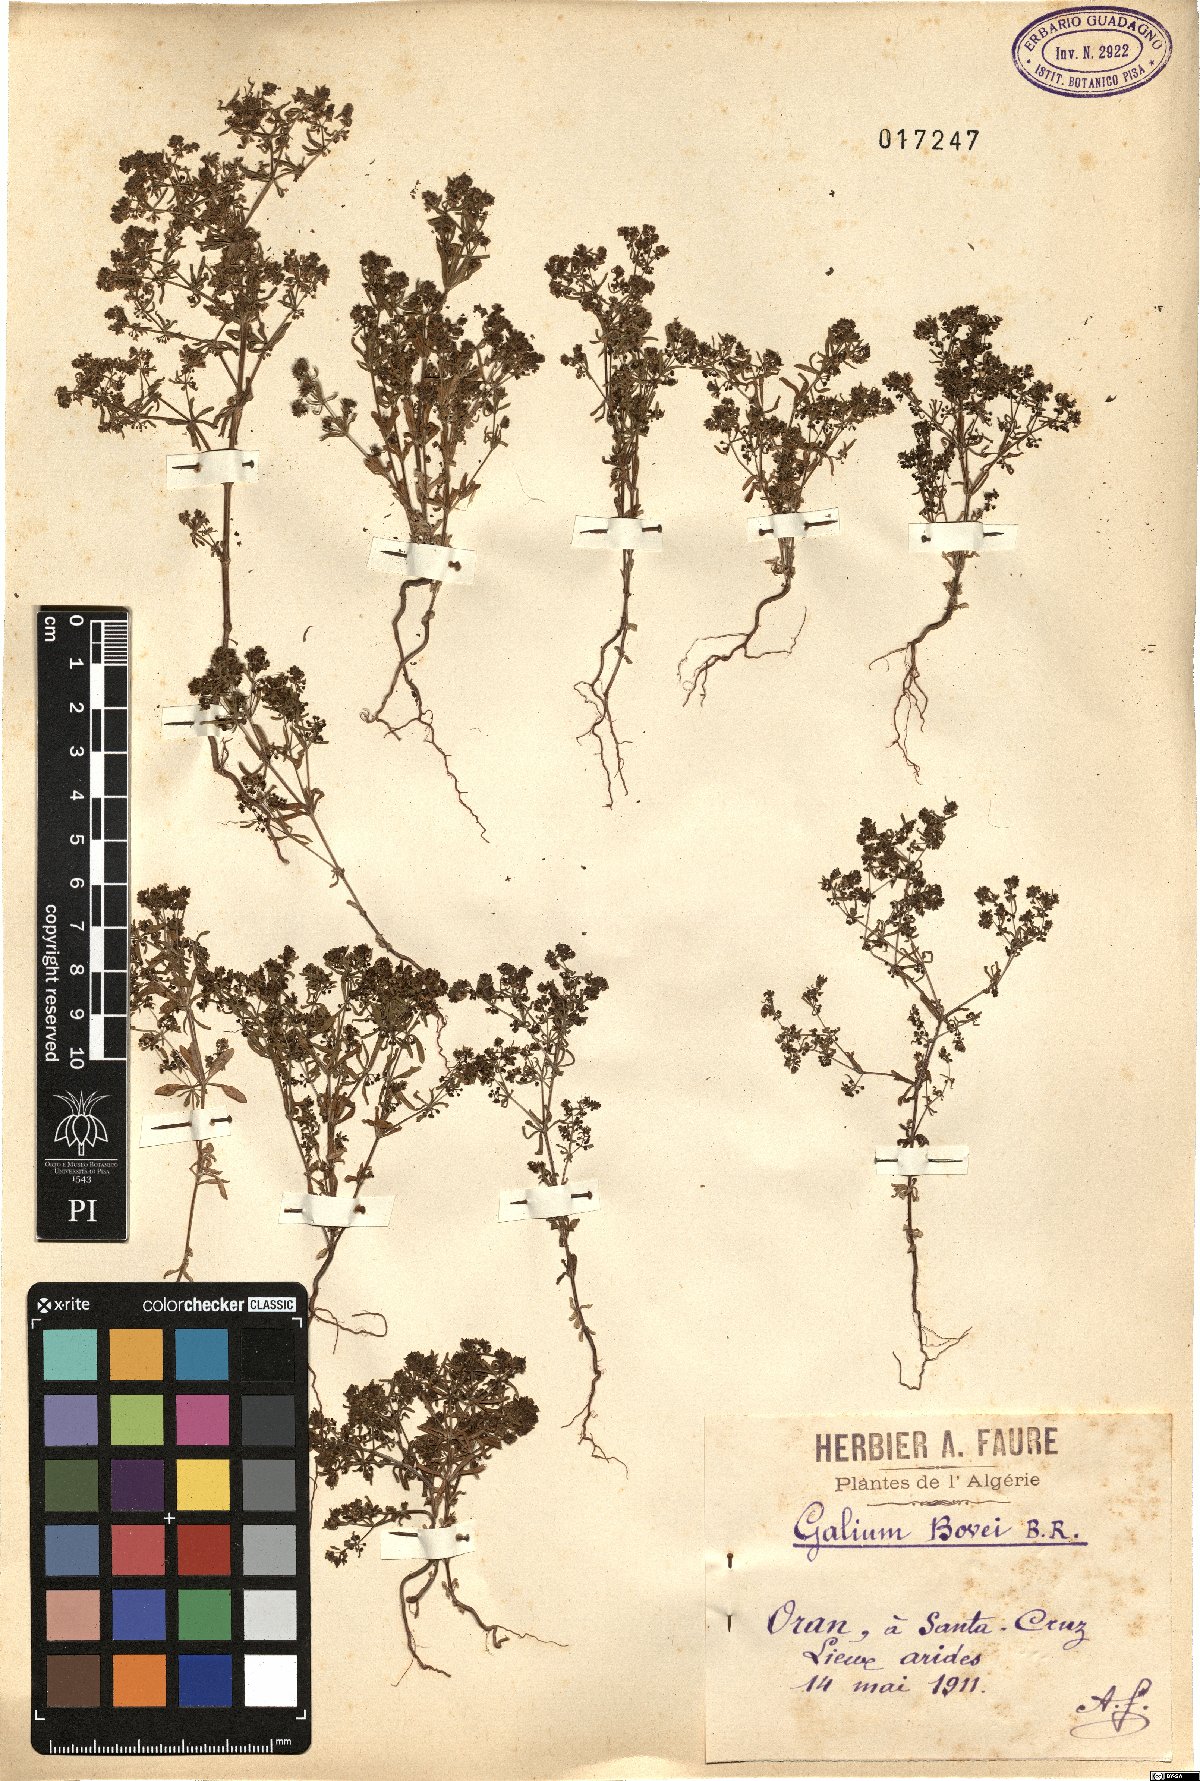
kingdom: Plantae
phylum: Tracheophyta
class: Magnoliopsida
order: Gentianales
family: Rubiaceae
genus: Galium
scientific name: Galium viscosum
